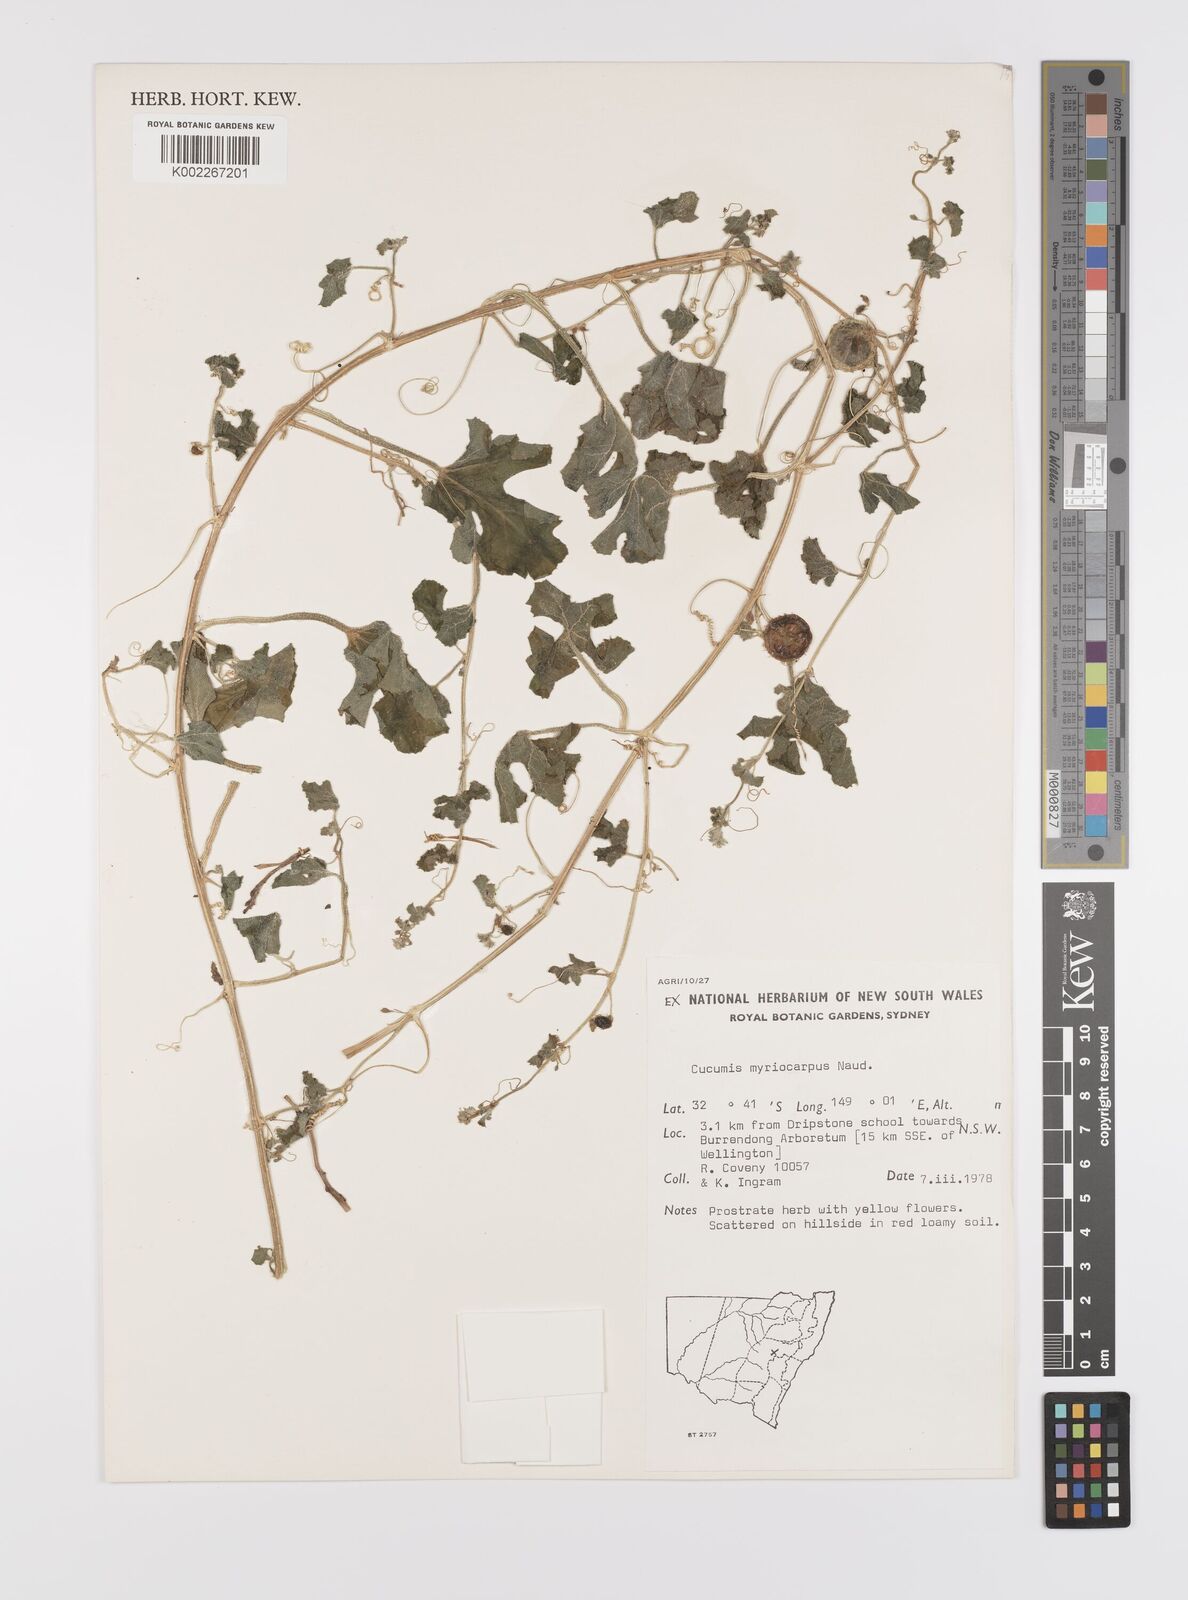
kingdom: Plantae
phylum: Tracheophyta
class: Magnoliopsida
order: Cucurbitales
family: Cucurbitaceae
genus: Cucumis
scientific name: Cucumis myriocarpus
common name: Gooseberry cucumber
